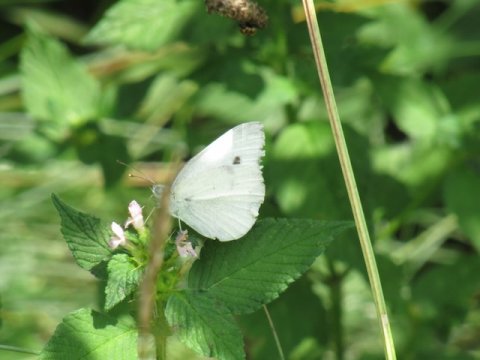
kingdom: Animalia
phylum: Arthropoda
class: Insecta
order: Lepidoptera
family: Pieridae
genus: Pieris
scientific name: Pieris rapae
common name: Cabbage White
